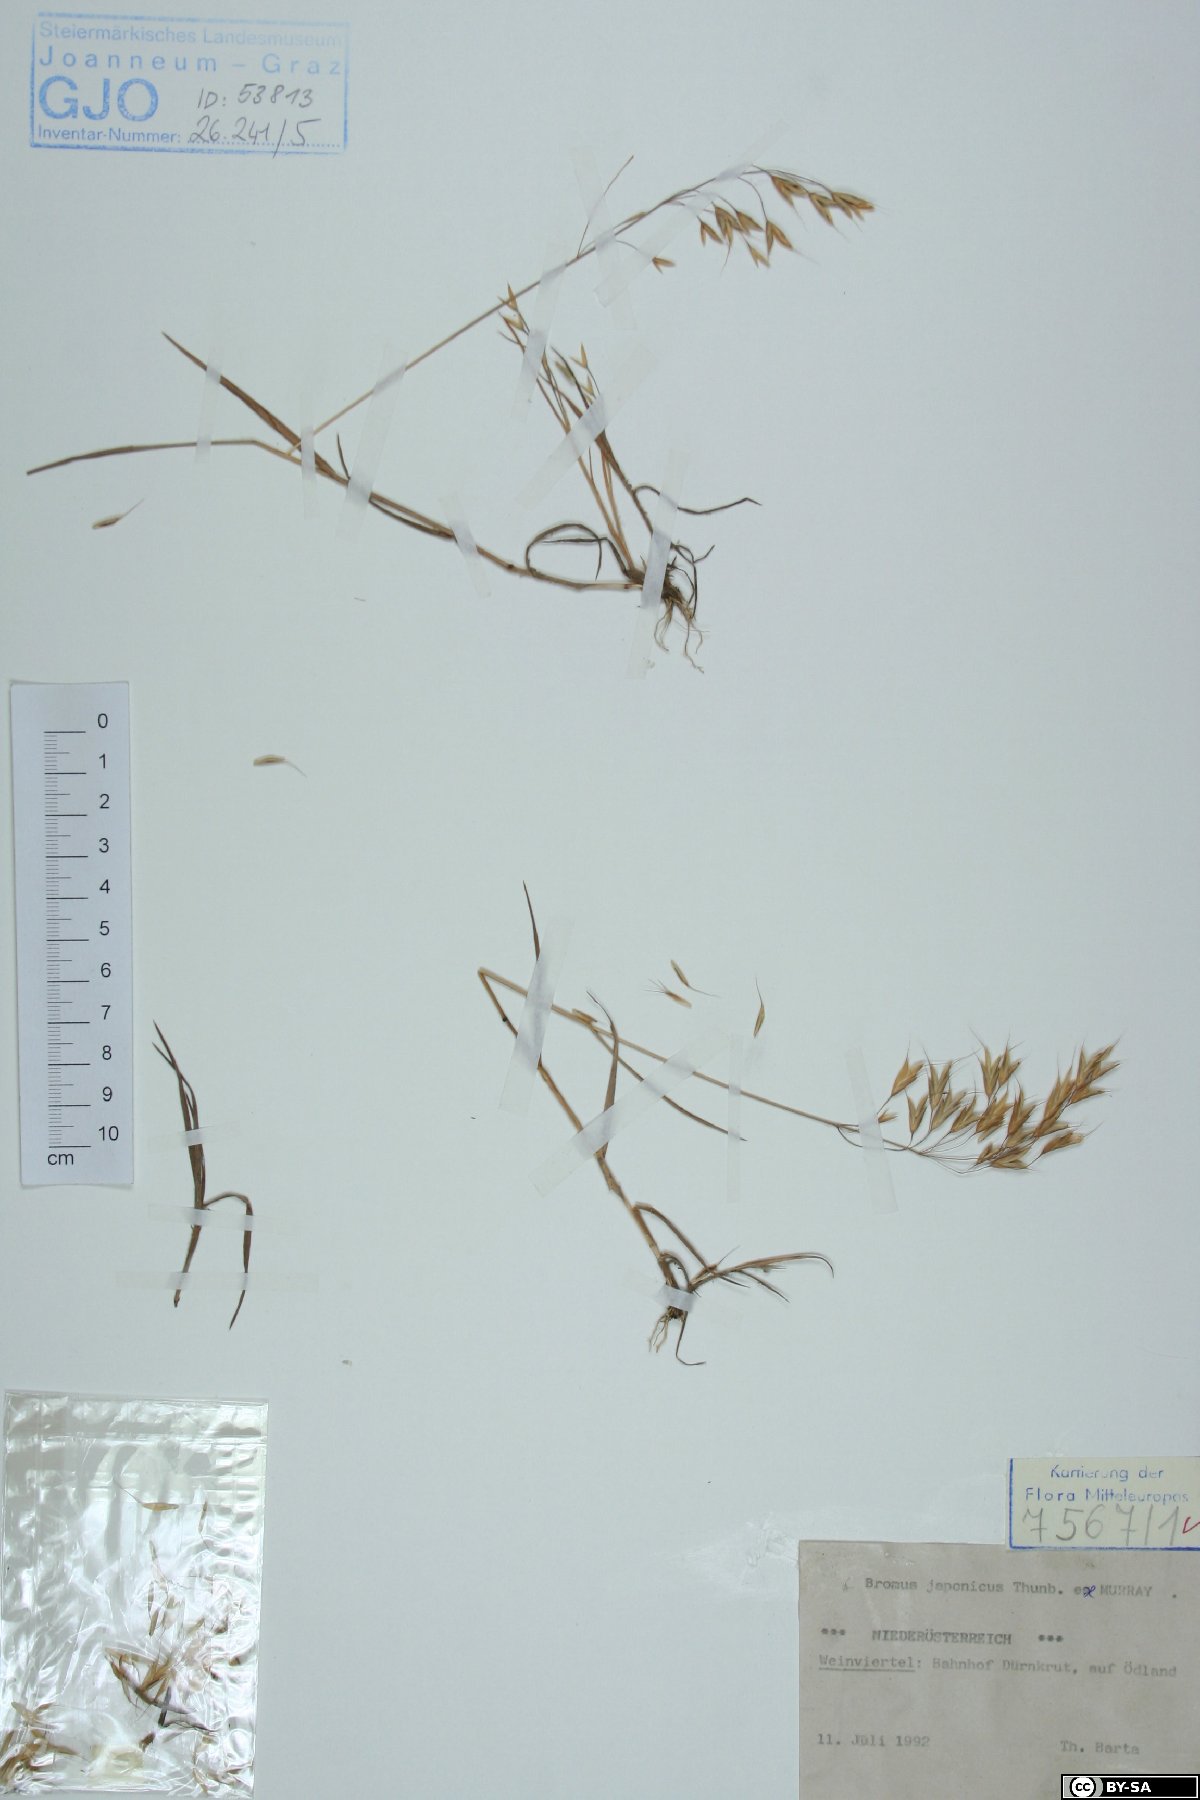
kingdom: Plantae
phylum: Tracheophyta
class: Liliopsida
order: Poales
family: Poaceae
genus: Bromus
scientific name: Bromus japonicus
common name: Japanese brome
